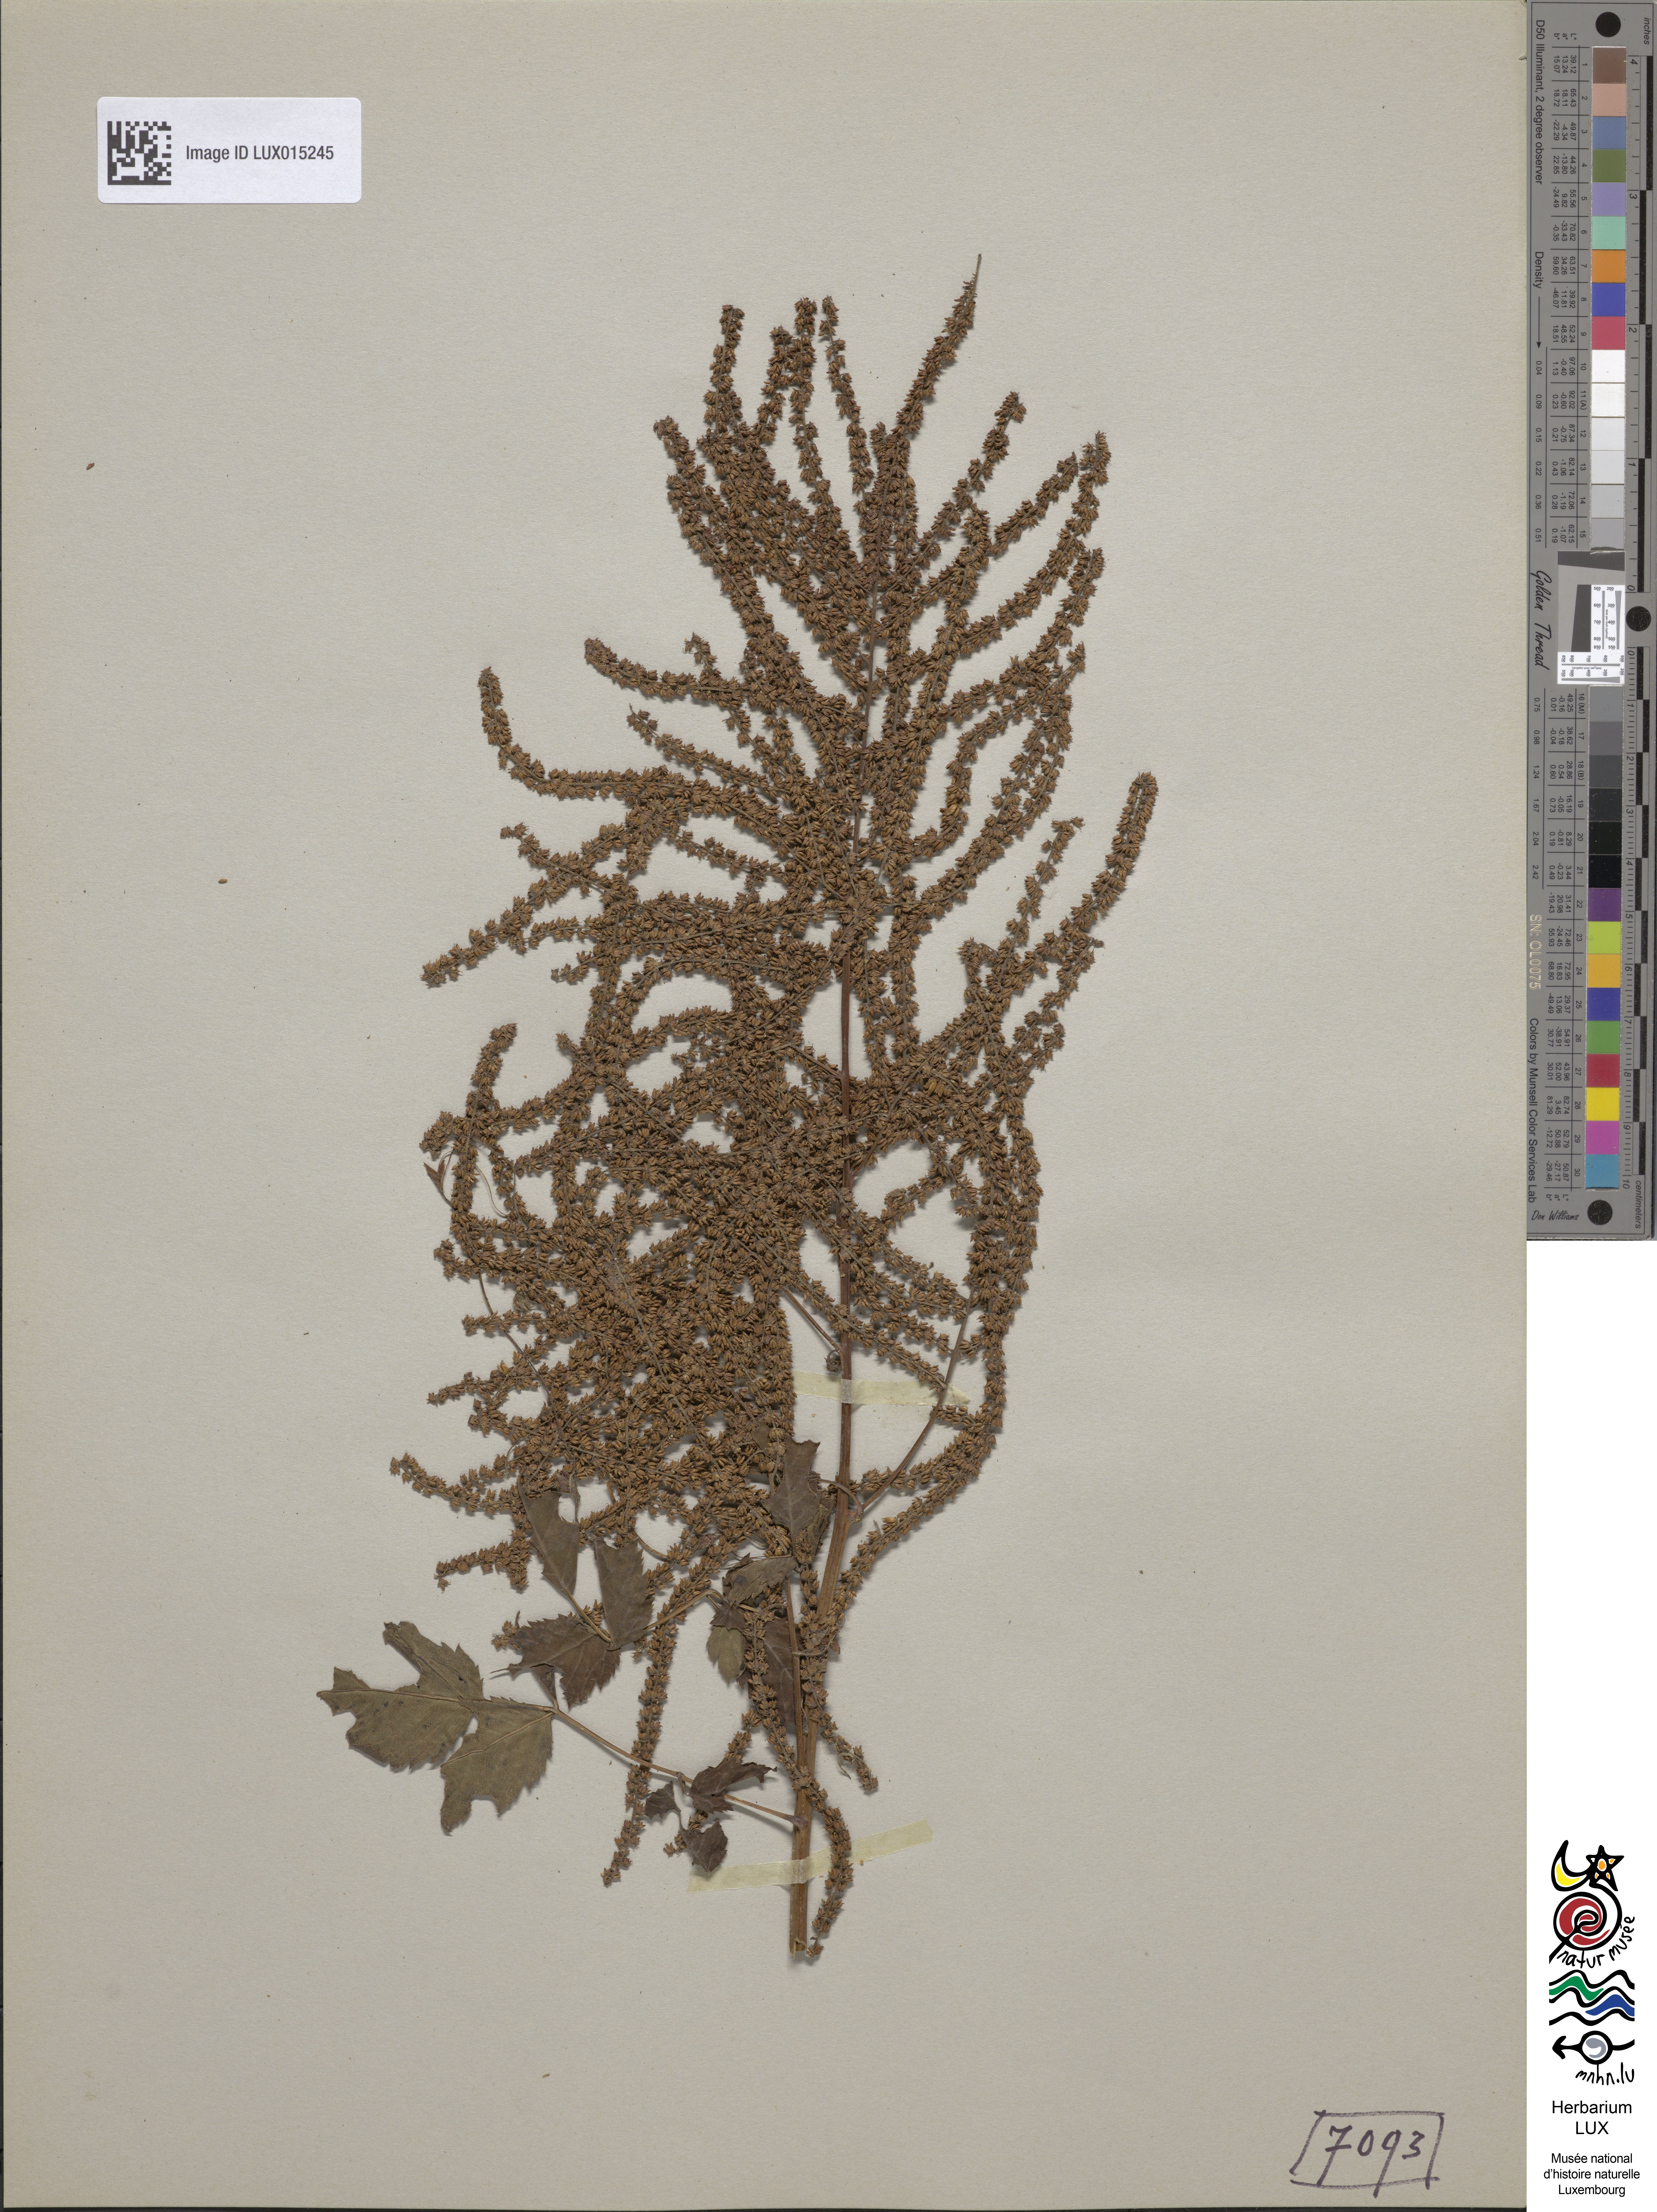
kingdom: Plantae
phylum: Tracheophyta
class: Magnoliopsida
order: Rosales
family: Rosaceae
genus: Aruncus
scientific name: Aruncus dioicus
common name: Buck's-beard
